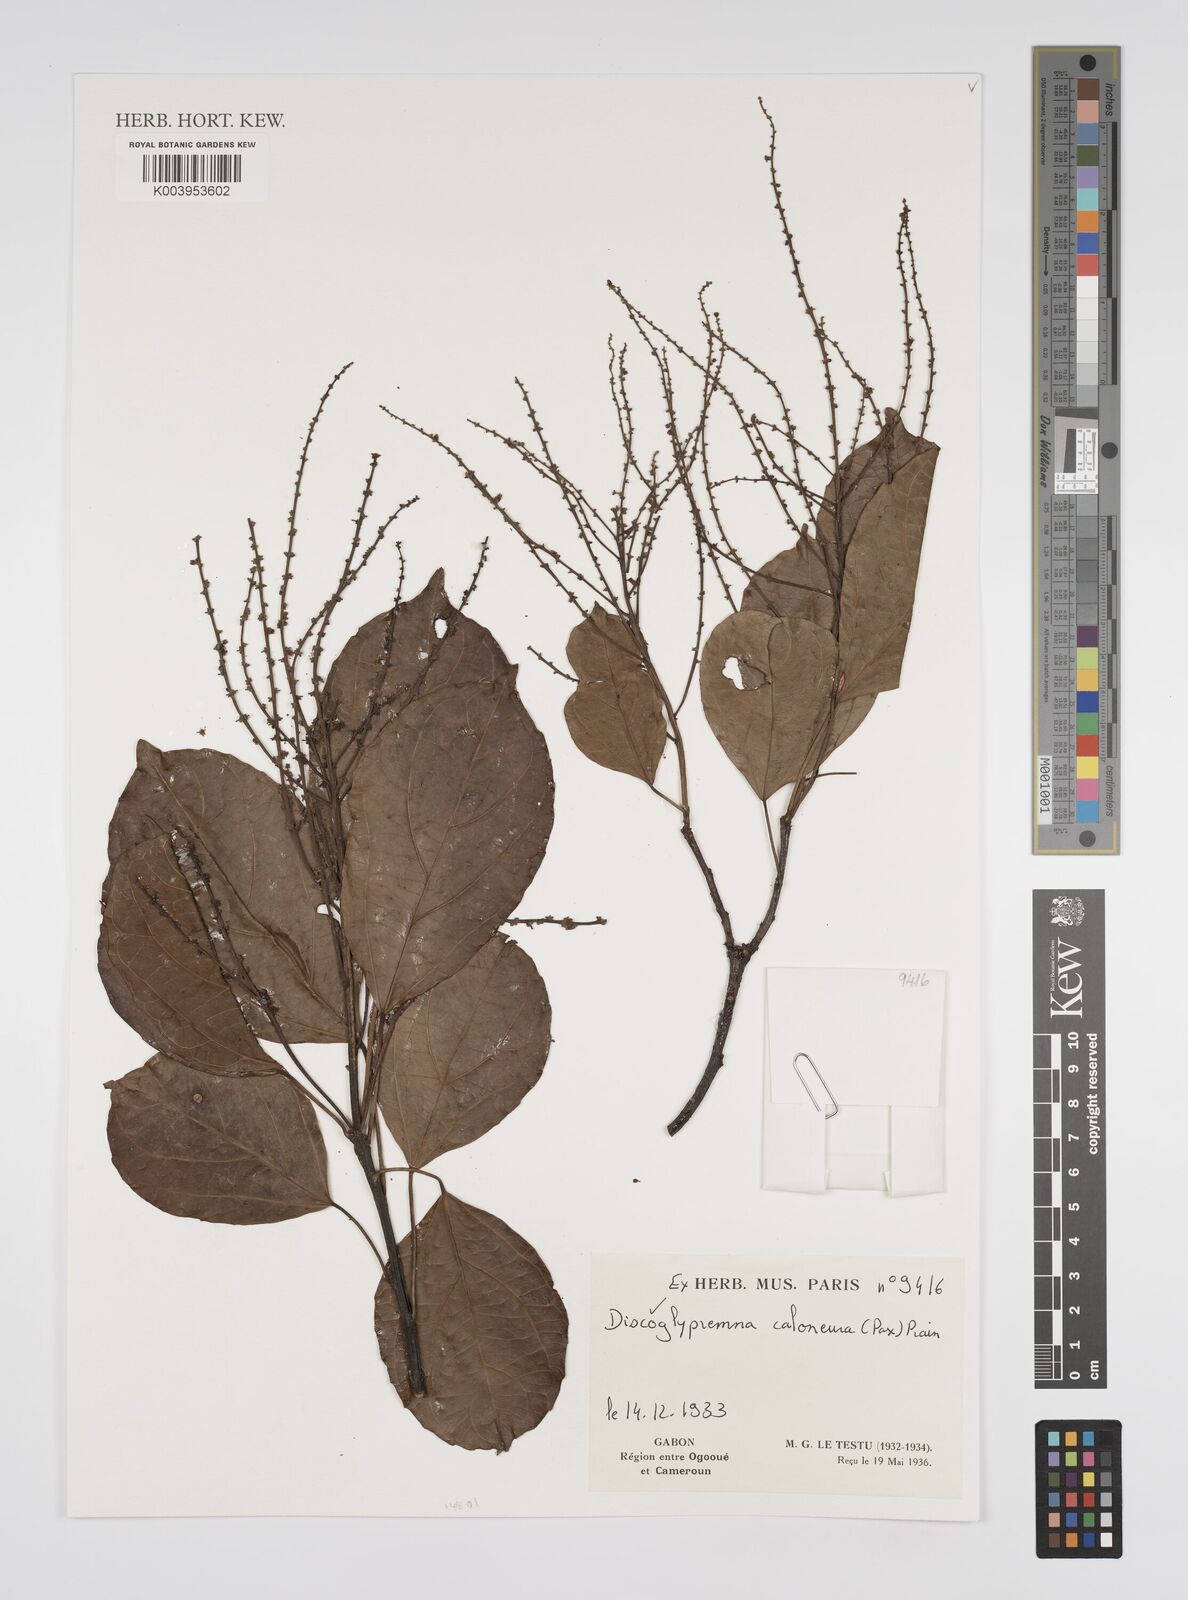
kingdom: Plantae
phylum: Tracheophyta
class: Magnoliopsida
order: Malpighiales
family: Euphorbiaceae
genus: Discoglypremna
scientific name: Discoglypremna caloneura
